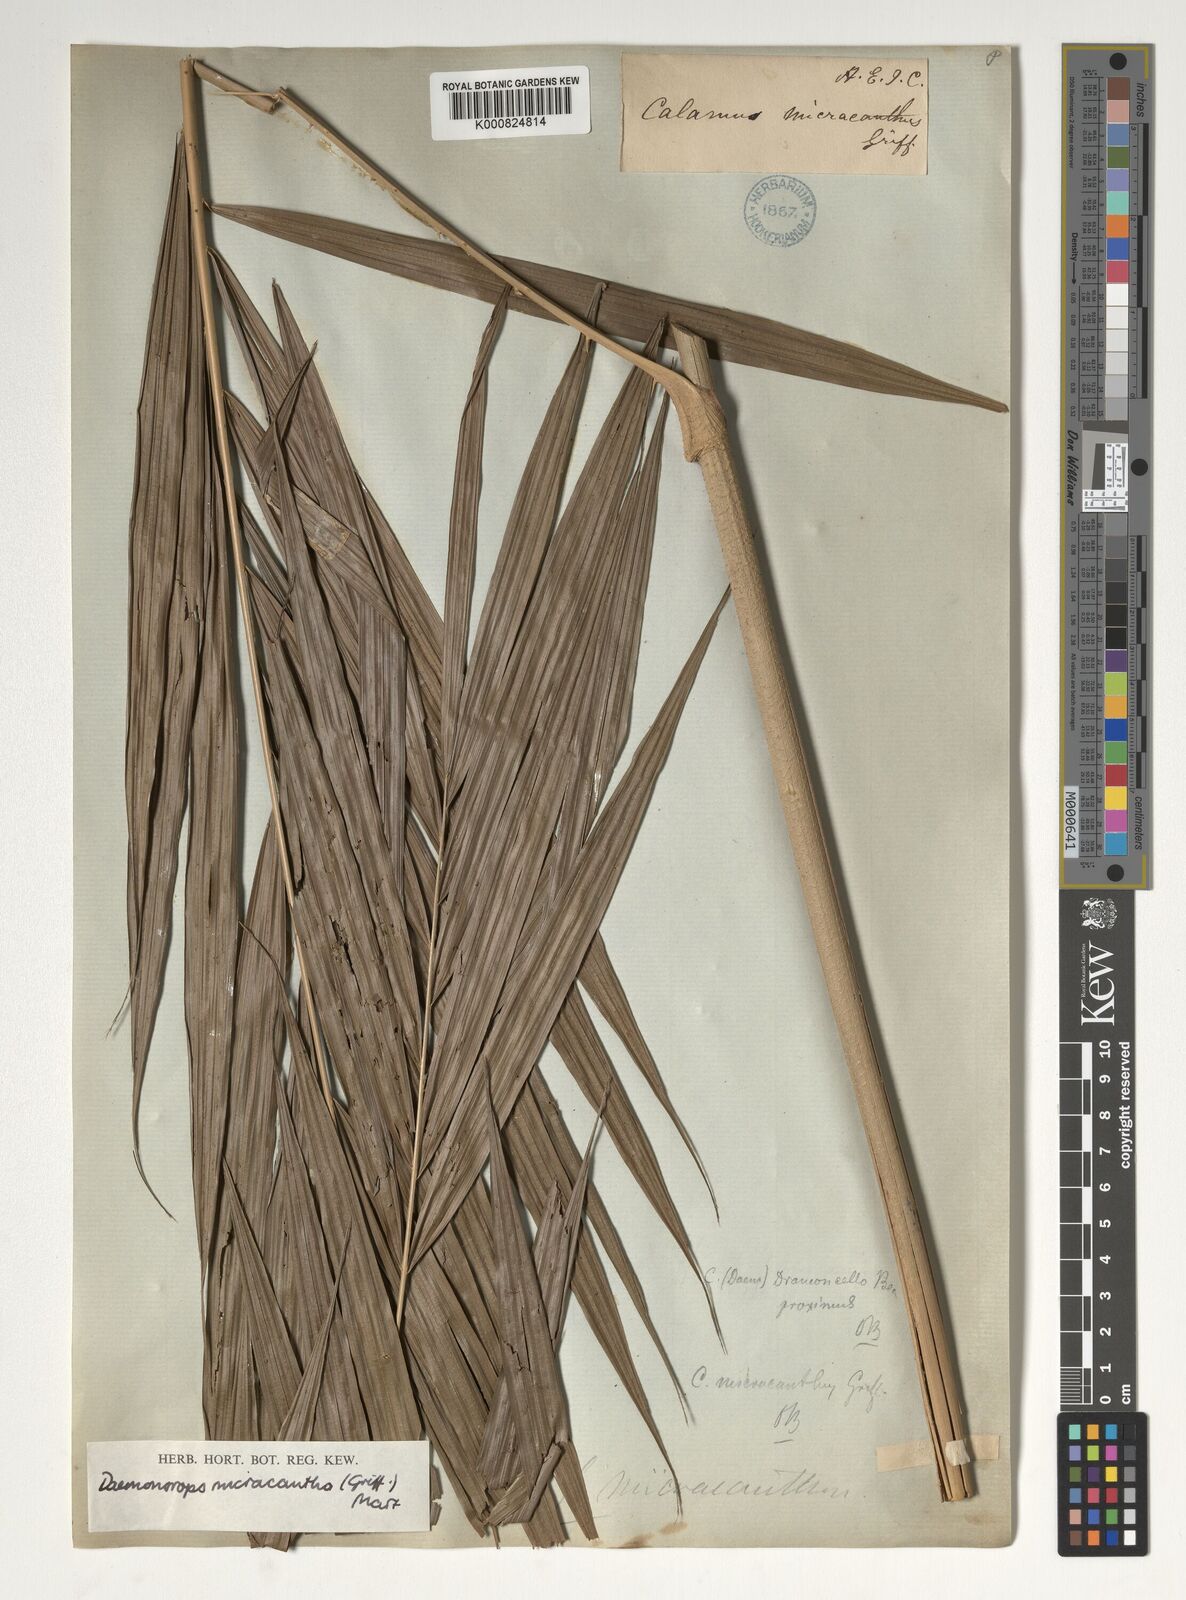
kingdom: Plantae
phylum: Tracheophyta
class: Liliopsida
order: Arecales
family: Arecaceae
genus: Calamus
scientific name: Calamus micracanthus
